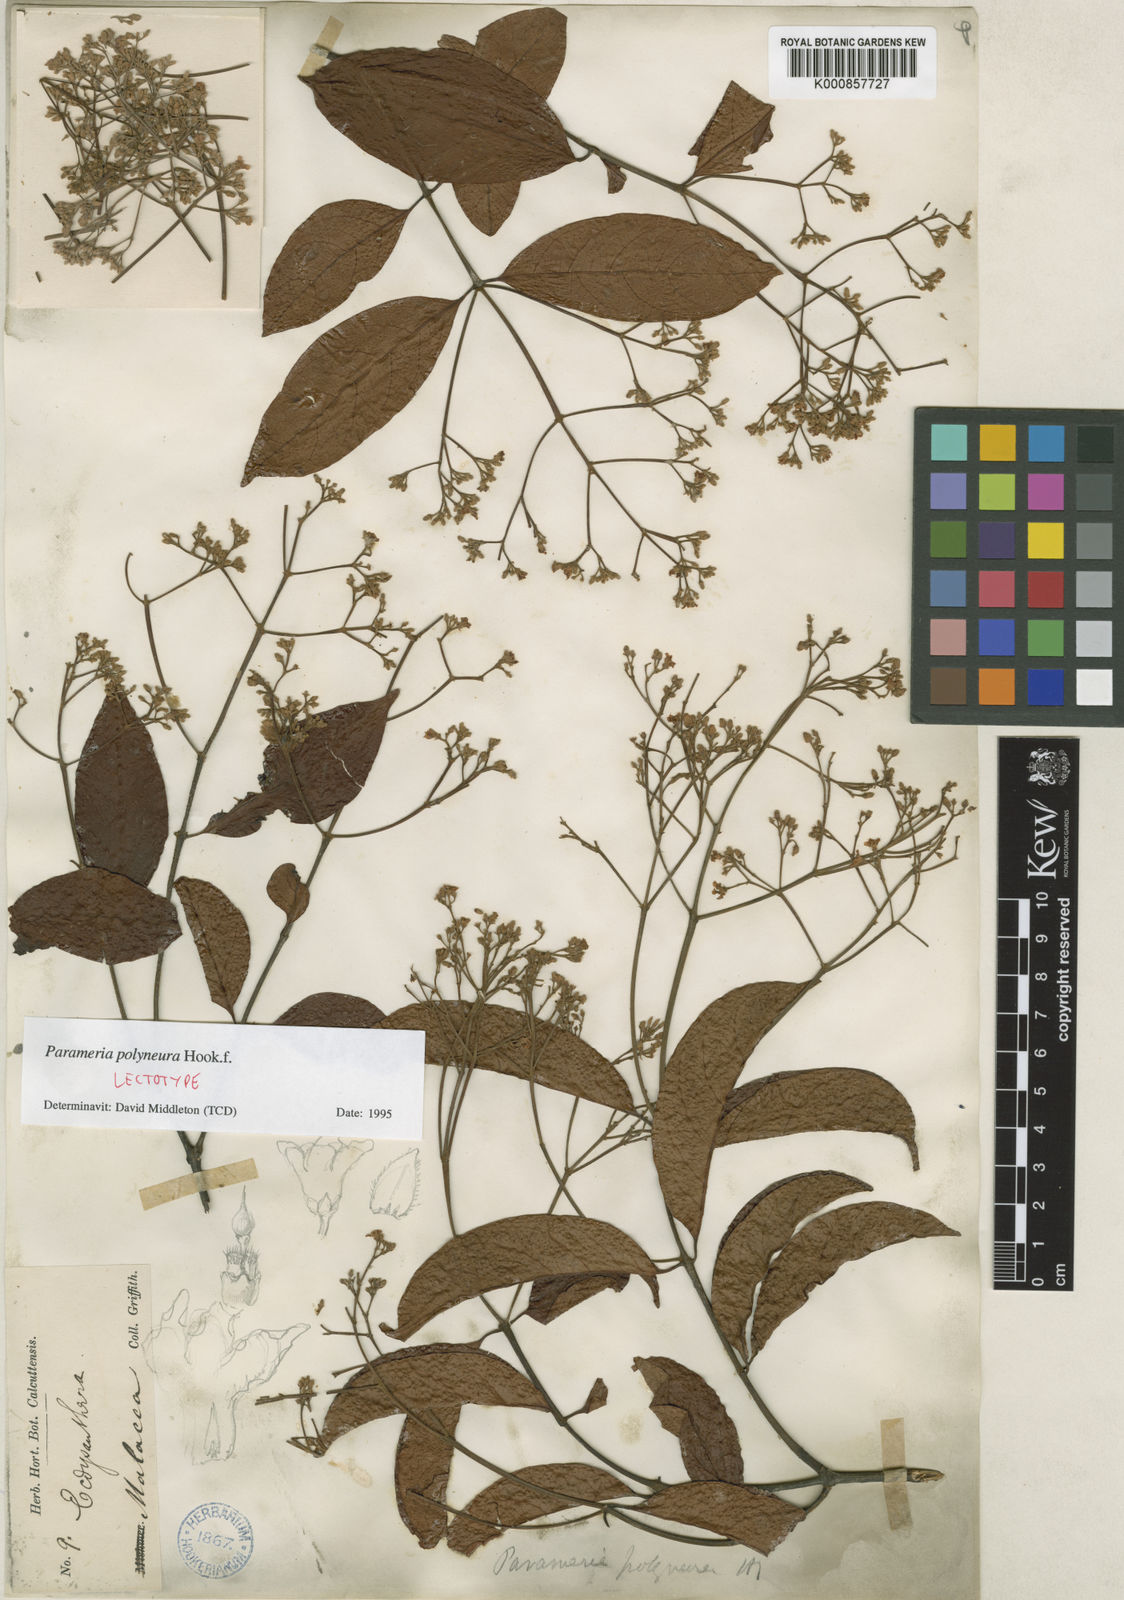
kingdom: Plantae
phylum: Tracheophyta
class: Magnoliopsida
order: Gentianales
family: Apocynaceae
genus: Urceola
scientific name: Urceola polyneura
